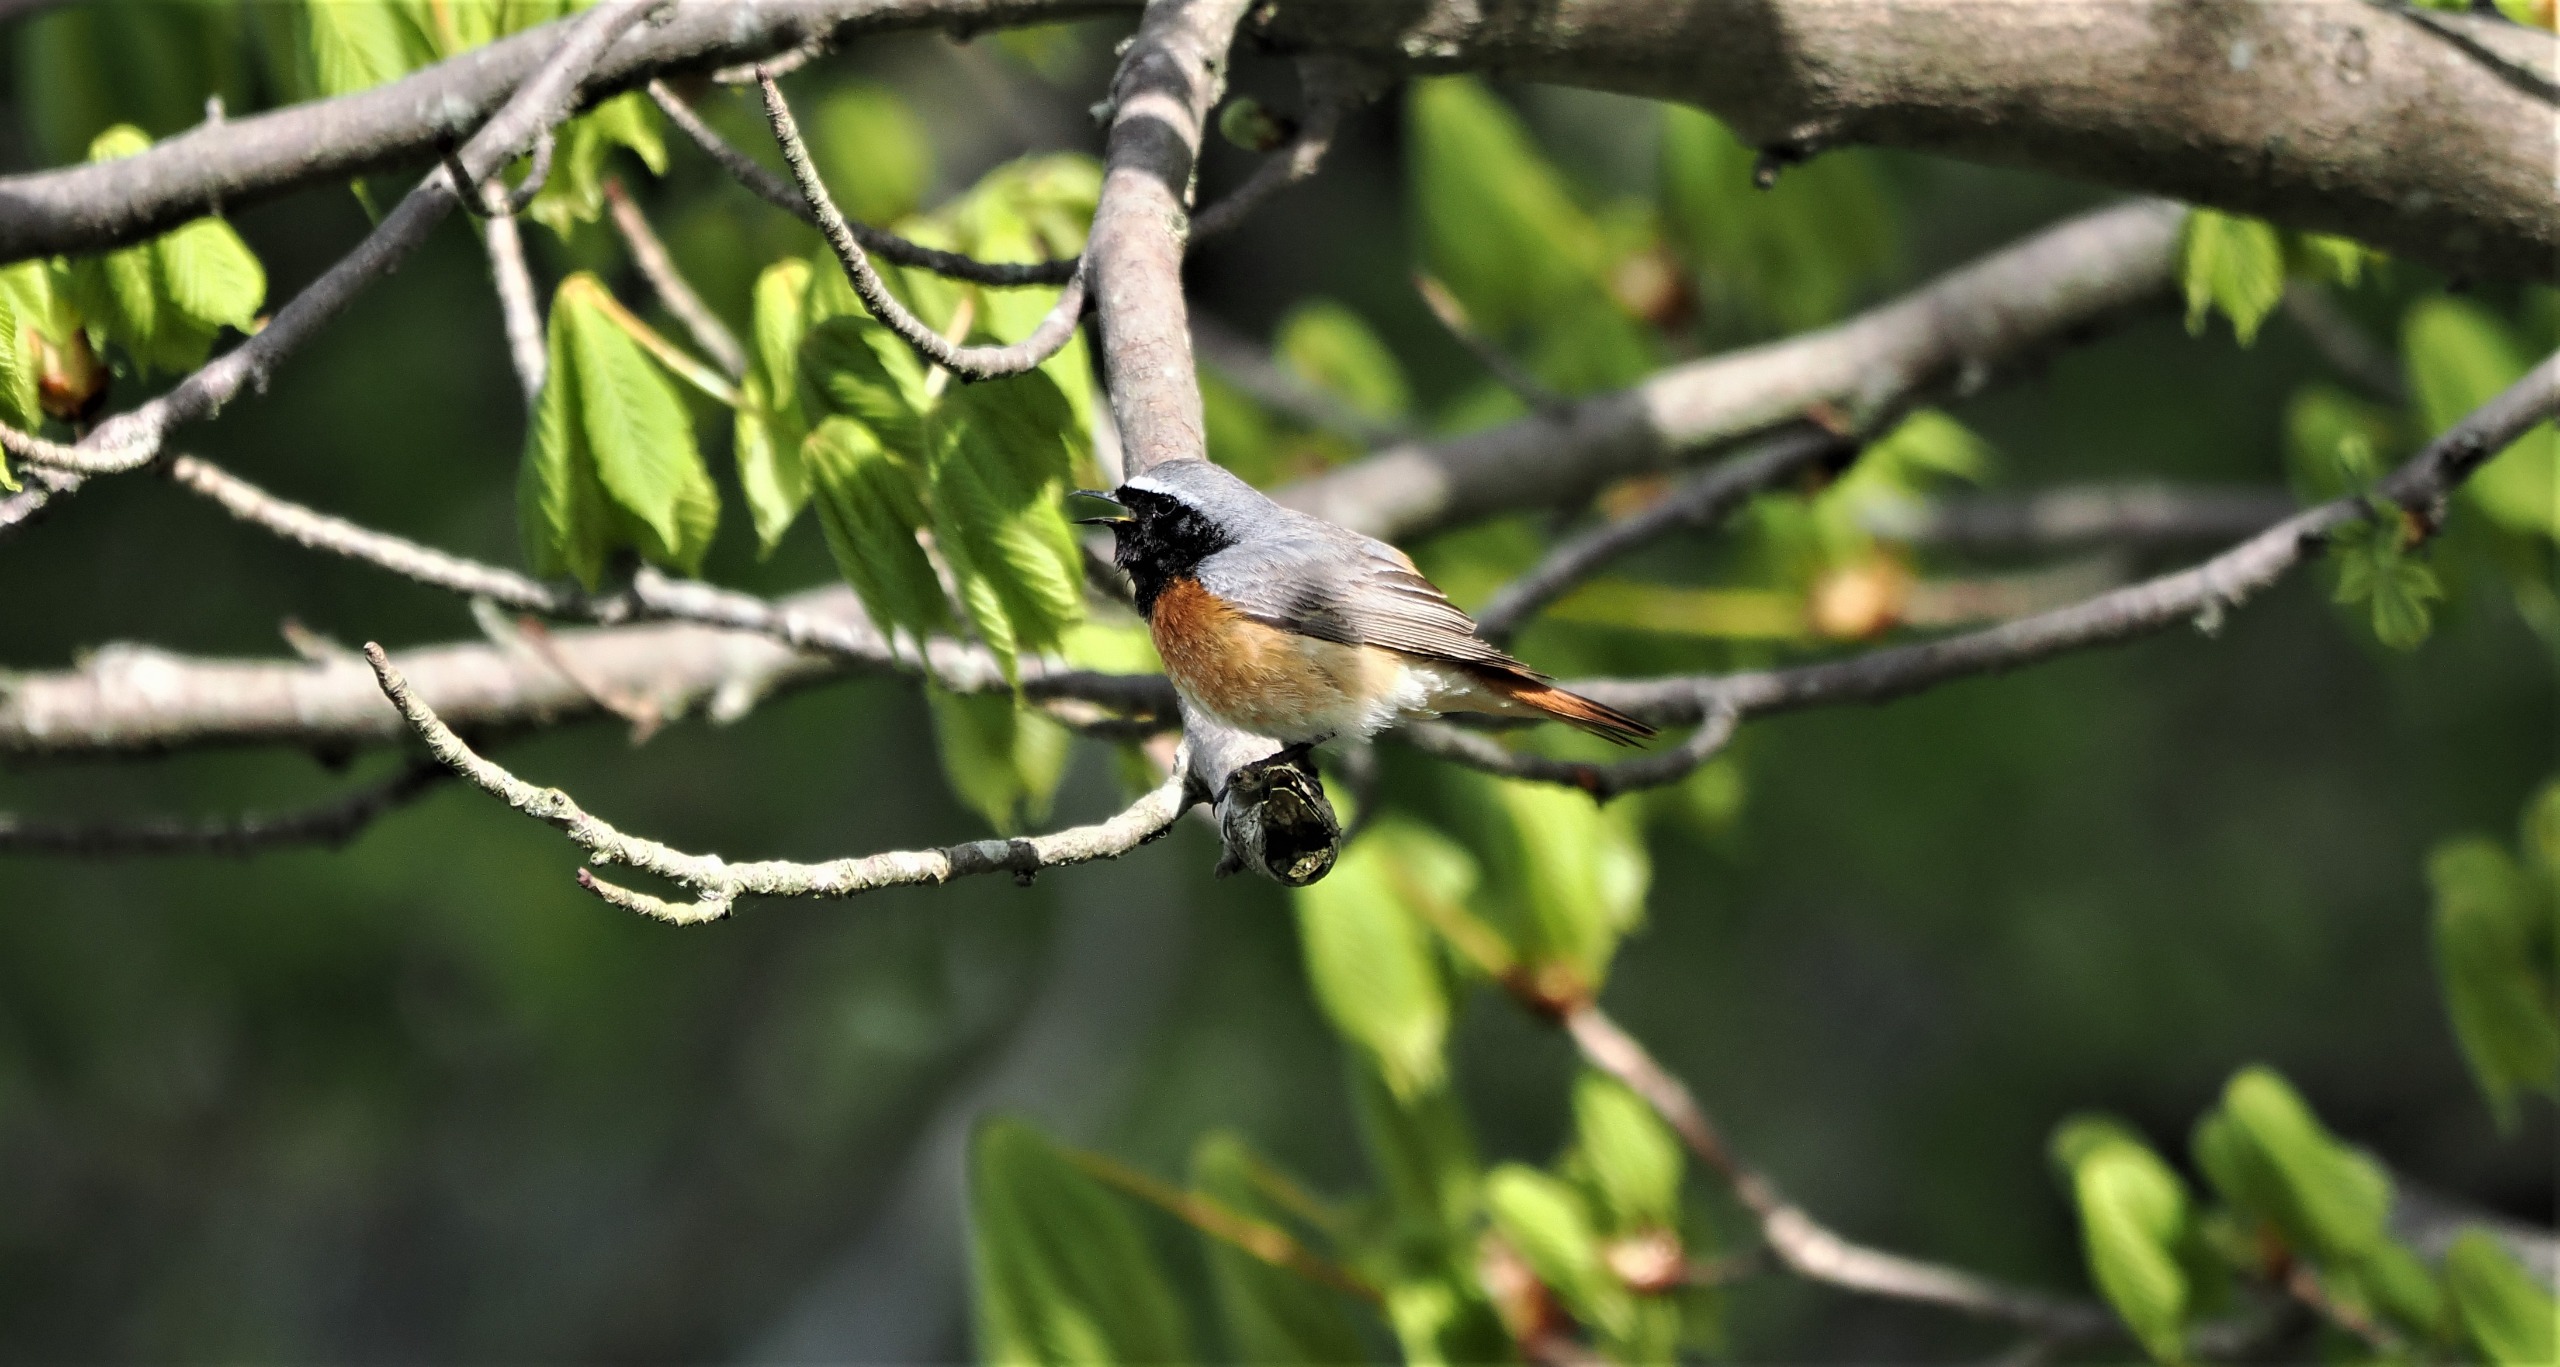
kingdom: Animalia
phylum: Chordata
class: Aves
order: Passeriformes
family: Muscicapidae
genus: Phoenicurus
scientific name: Phoenicurus phoenicurus
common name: Rødstjert
